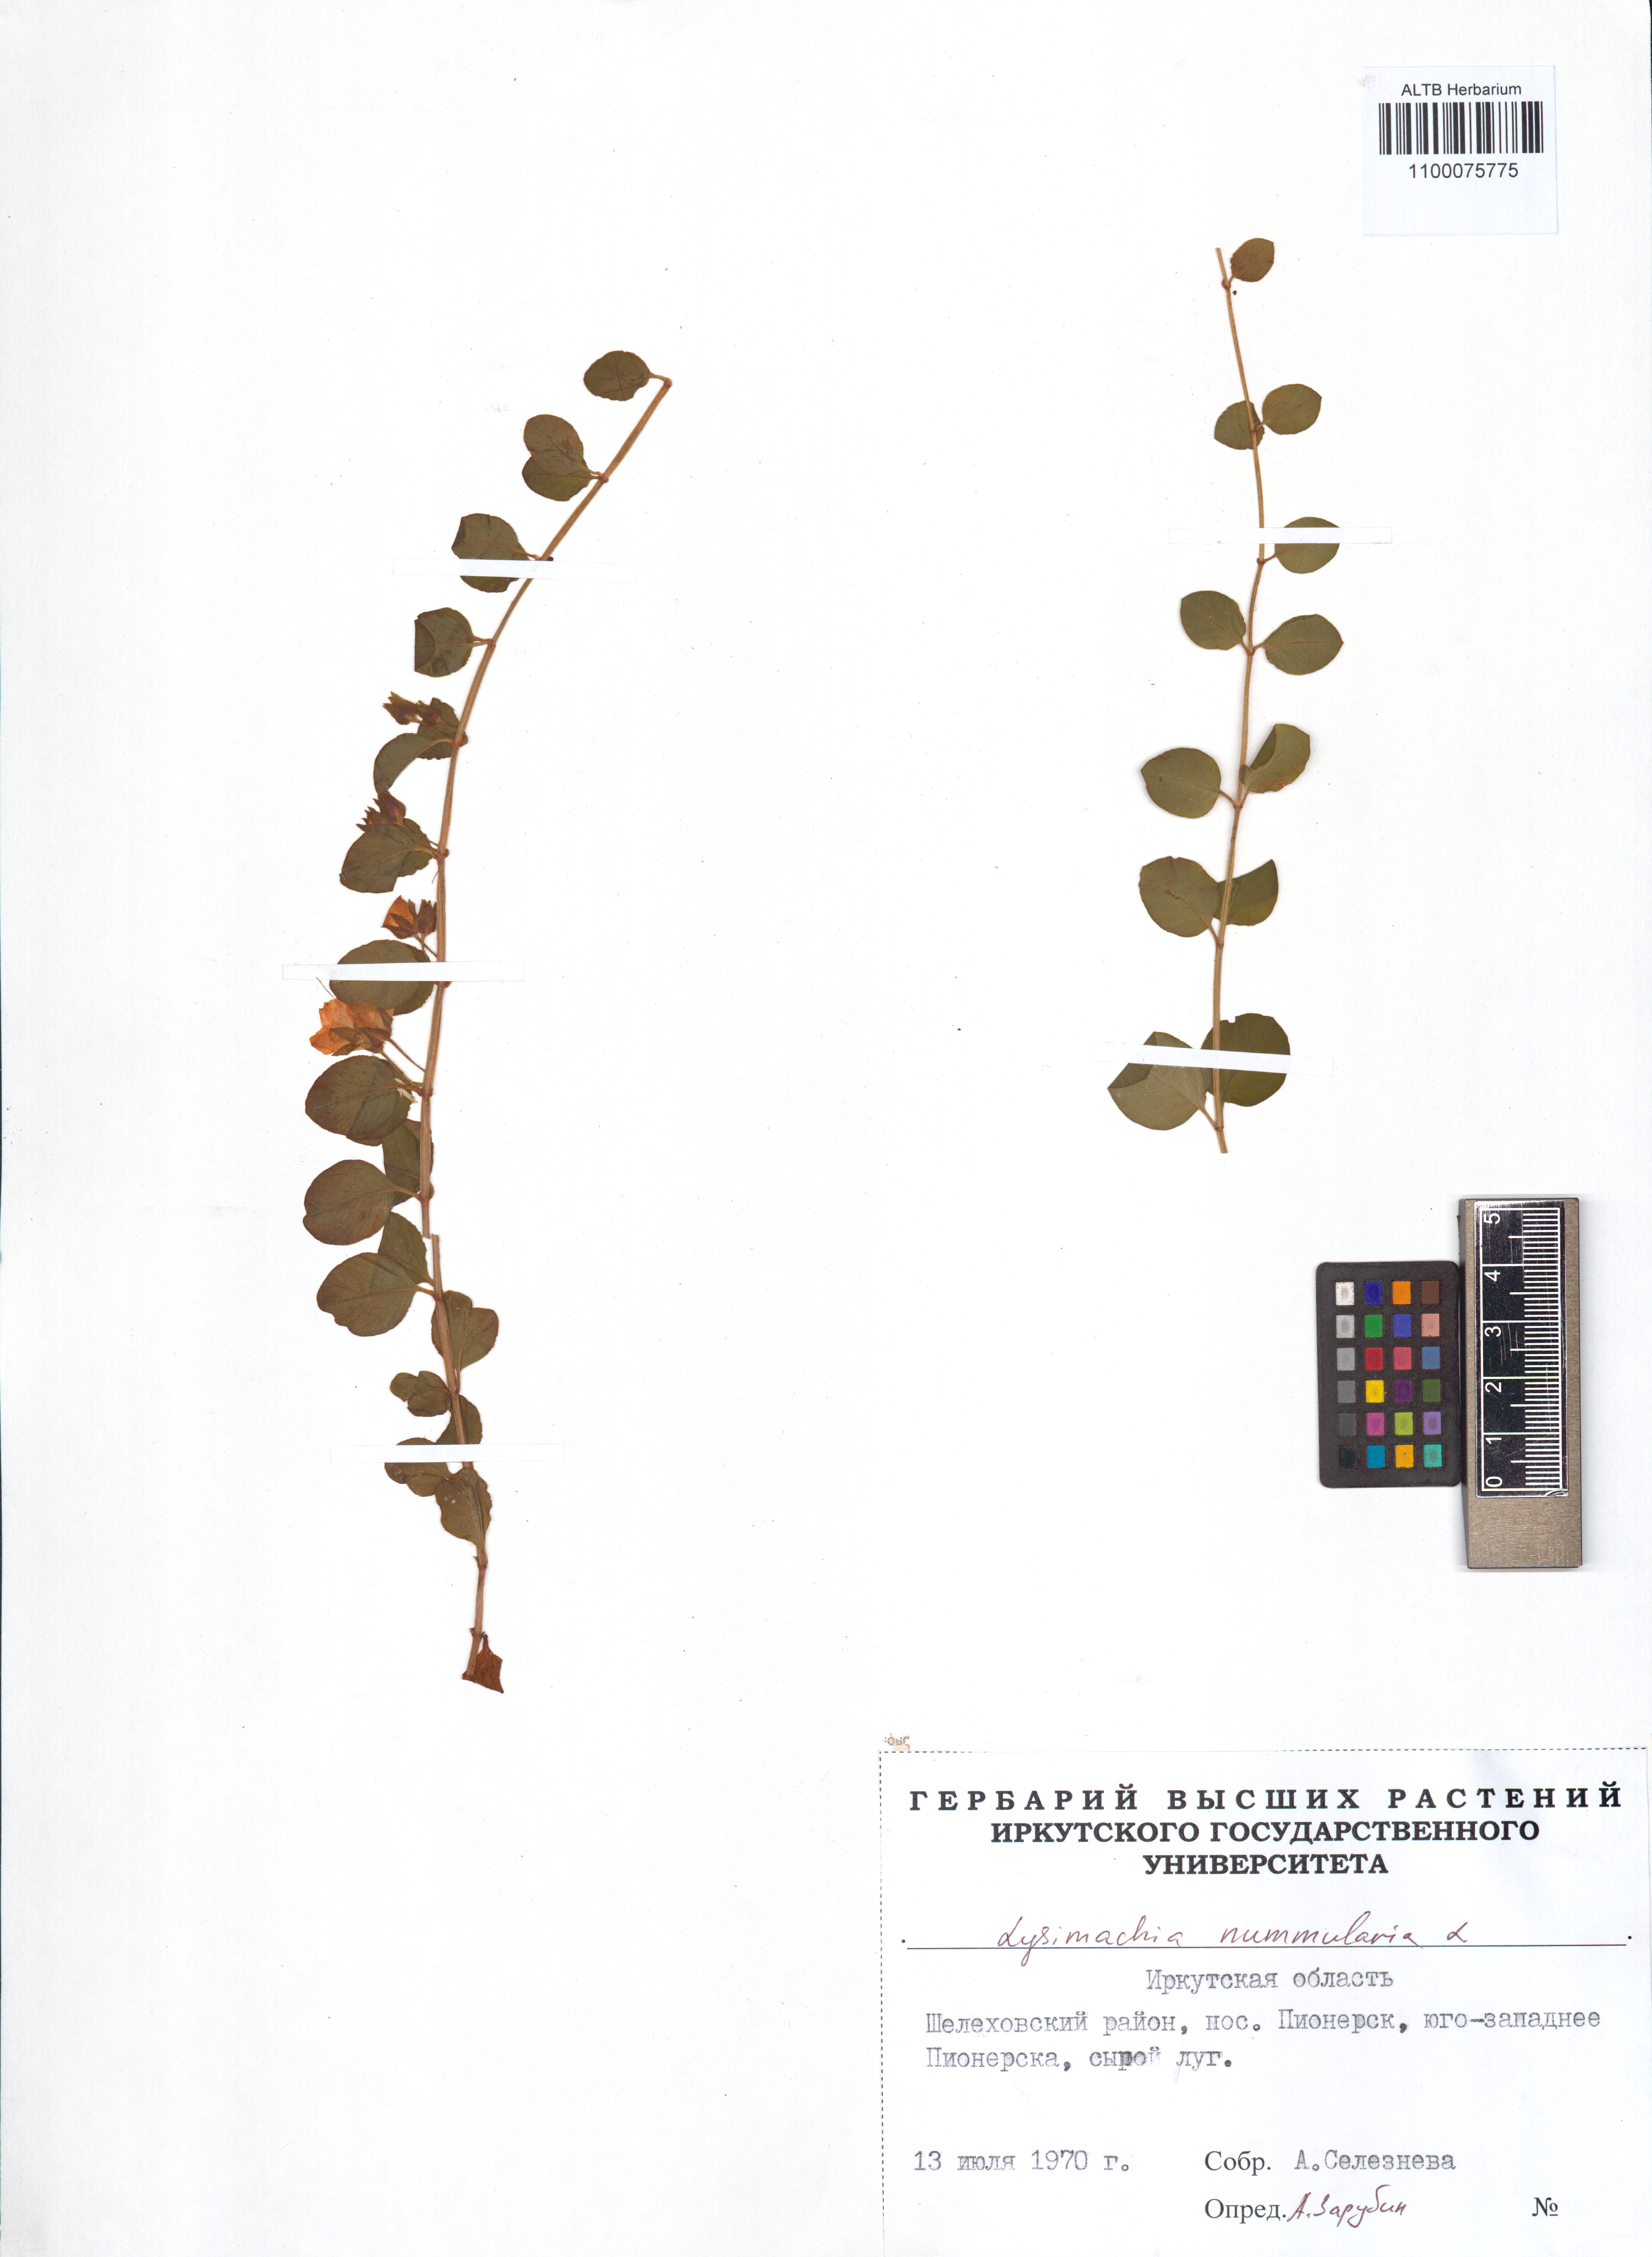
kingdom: Plantae
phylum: Tracheophyta
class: Magnoliopsida
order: Ericales
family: Primulaceae
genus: Lysimachia
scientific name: Lysimachia nummularia
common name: Moneywort
